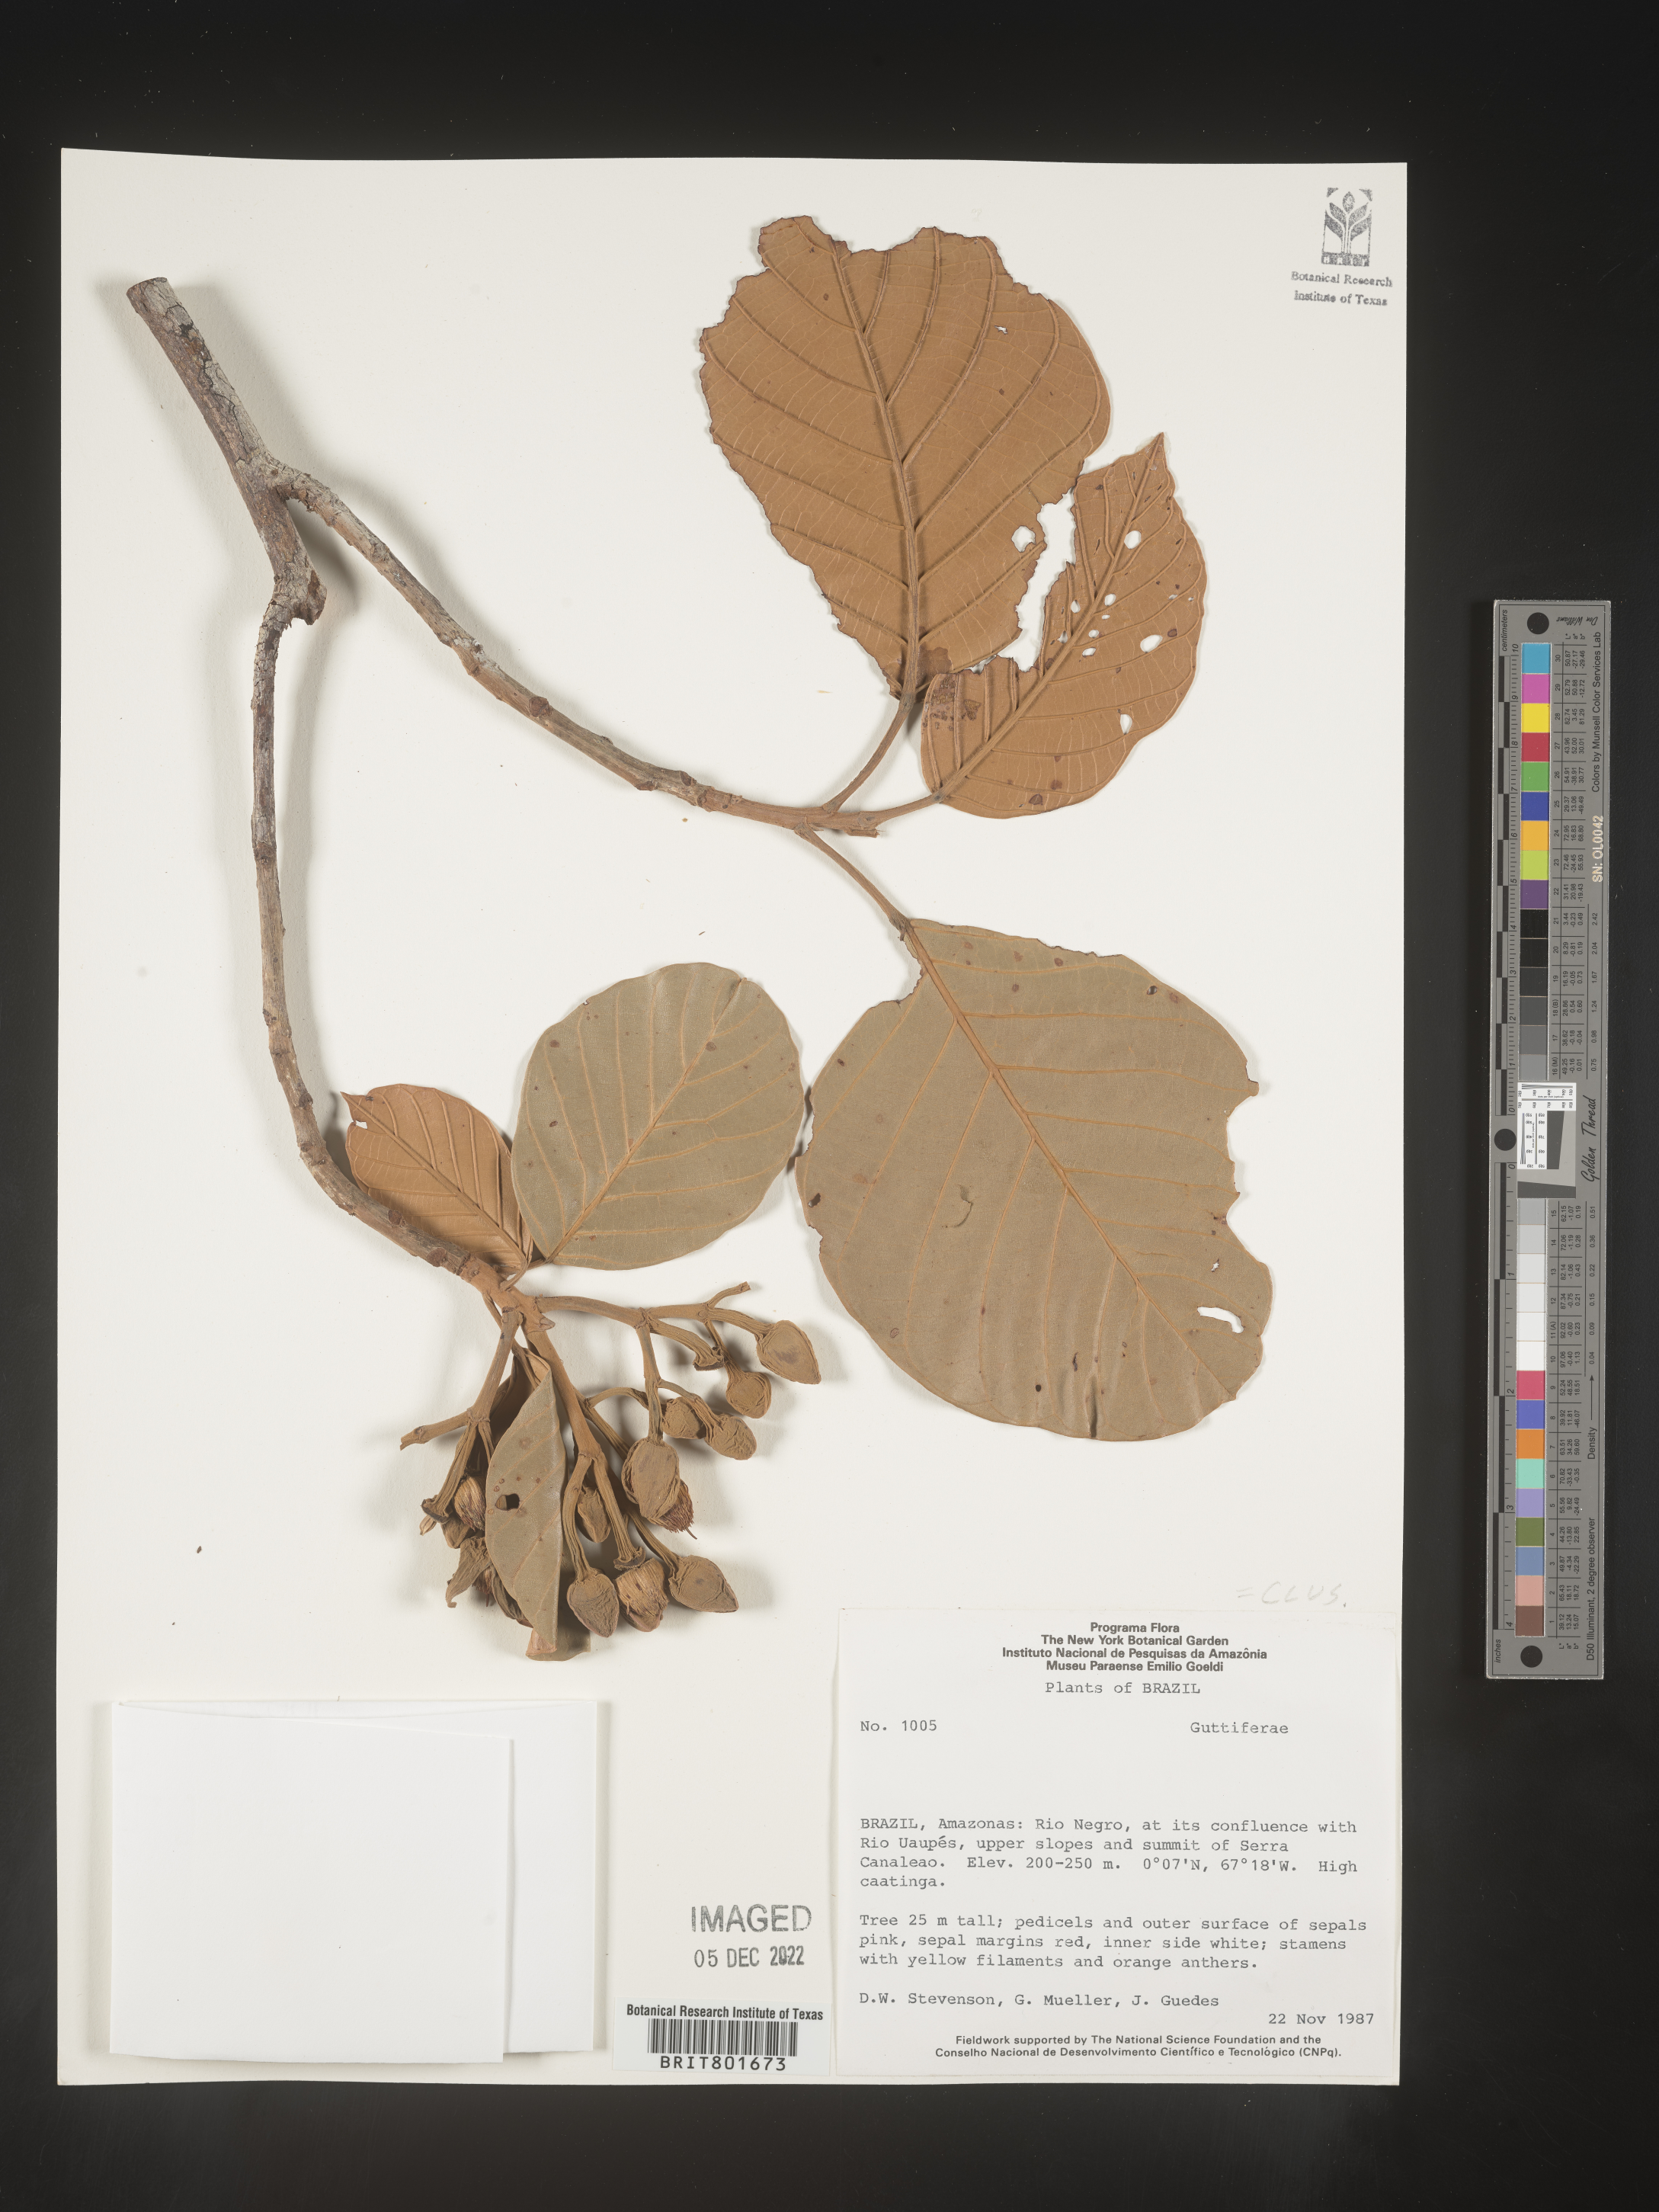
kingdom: Plantae
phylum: Tracheophyta
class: Magnoliopsida
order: Malpighiales
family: Clusiaceae
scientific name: Clusiaceae
